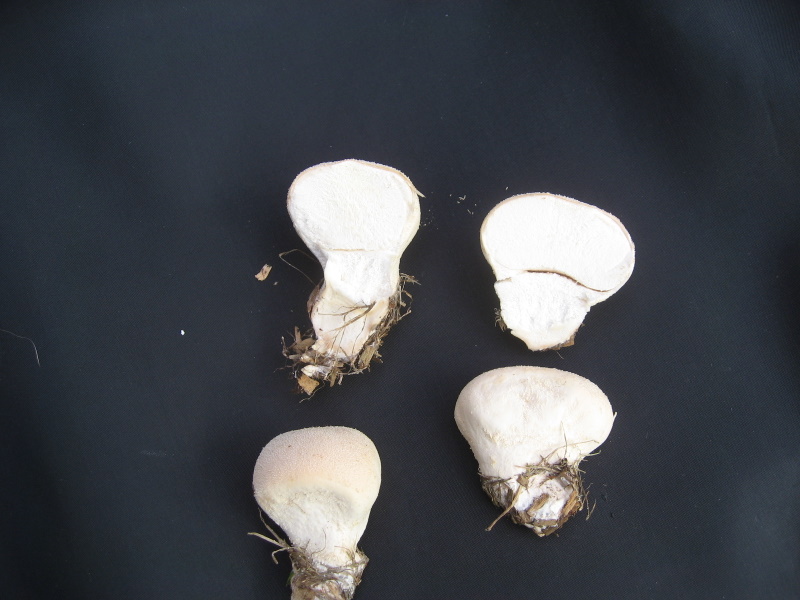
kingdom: Fungi
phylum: Basidiomycota
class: Agaricomycetes
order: Agaricales
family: Lycoperdaceae
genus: Lycoperdon
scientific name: Lycoperdon pratense
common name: flad støvbold
